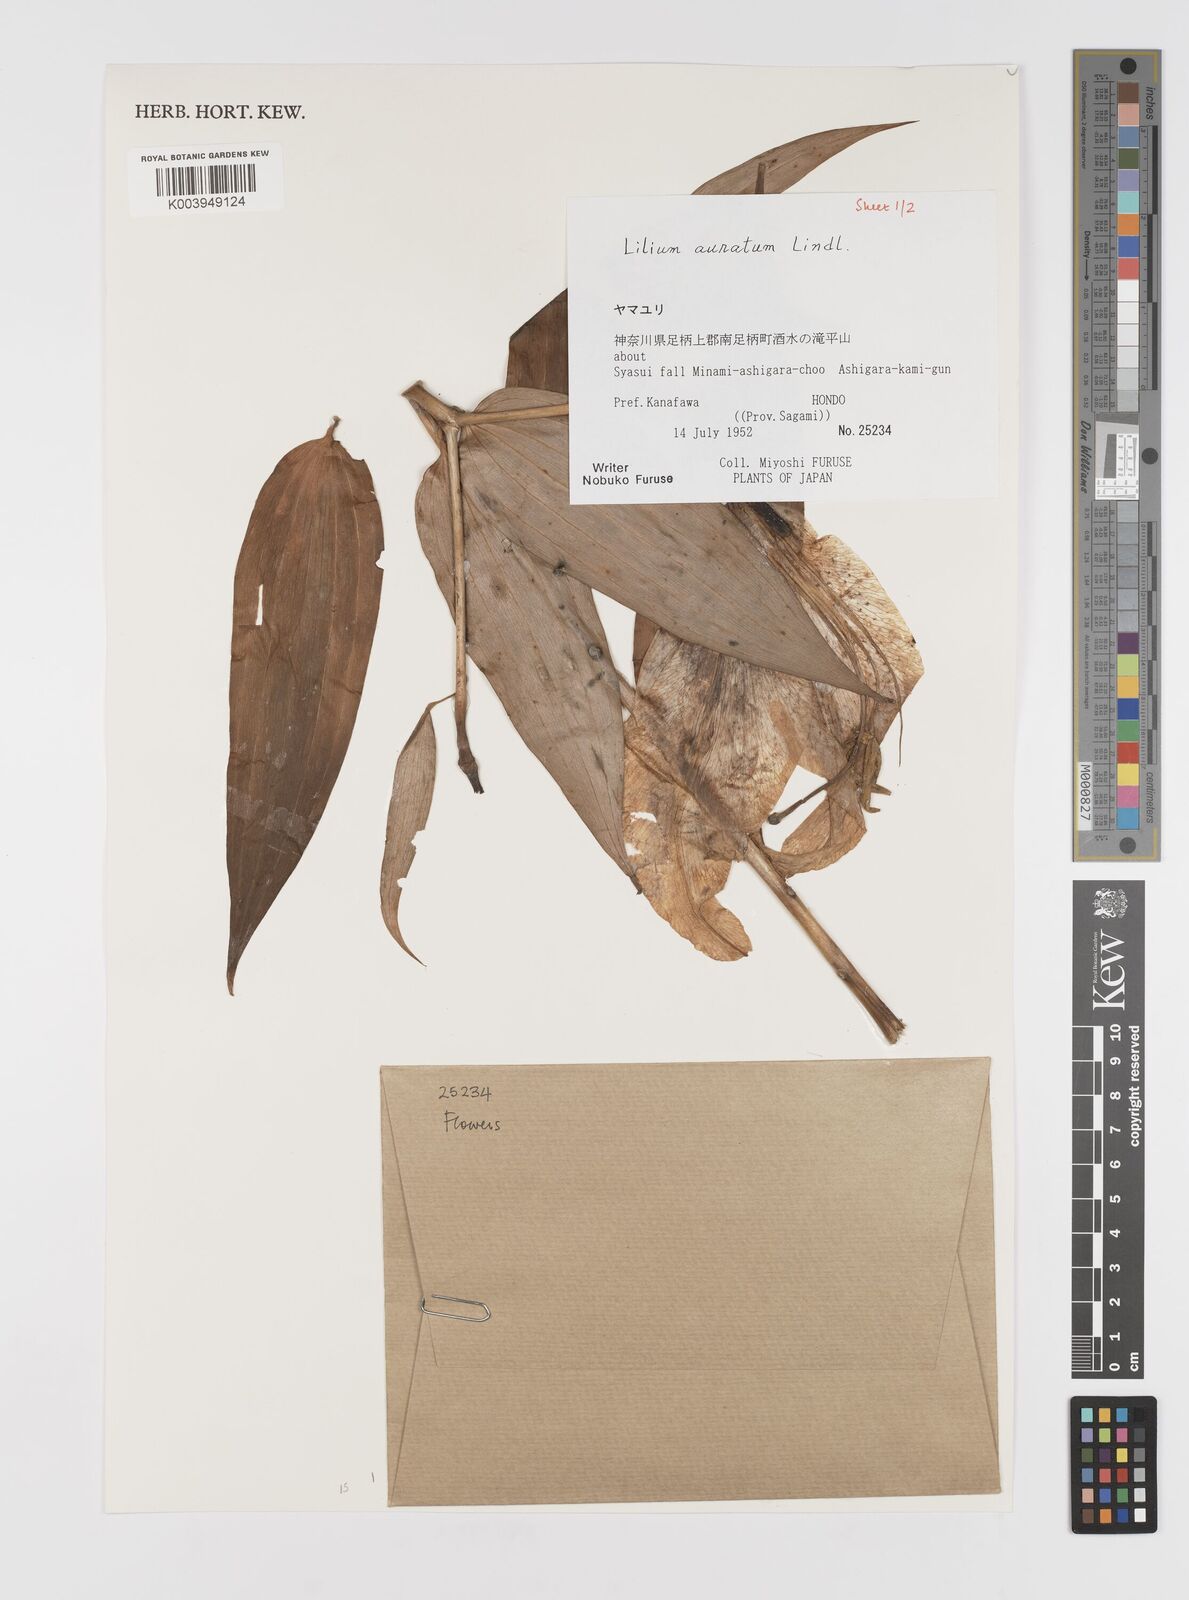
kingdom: Plantae
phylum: Tracheophyta
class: Liliopsida
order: Liliales
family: Liliaceae
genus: Lilium
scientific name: Lilium auratum
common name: Golden-ray lily
